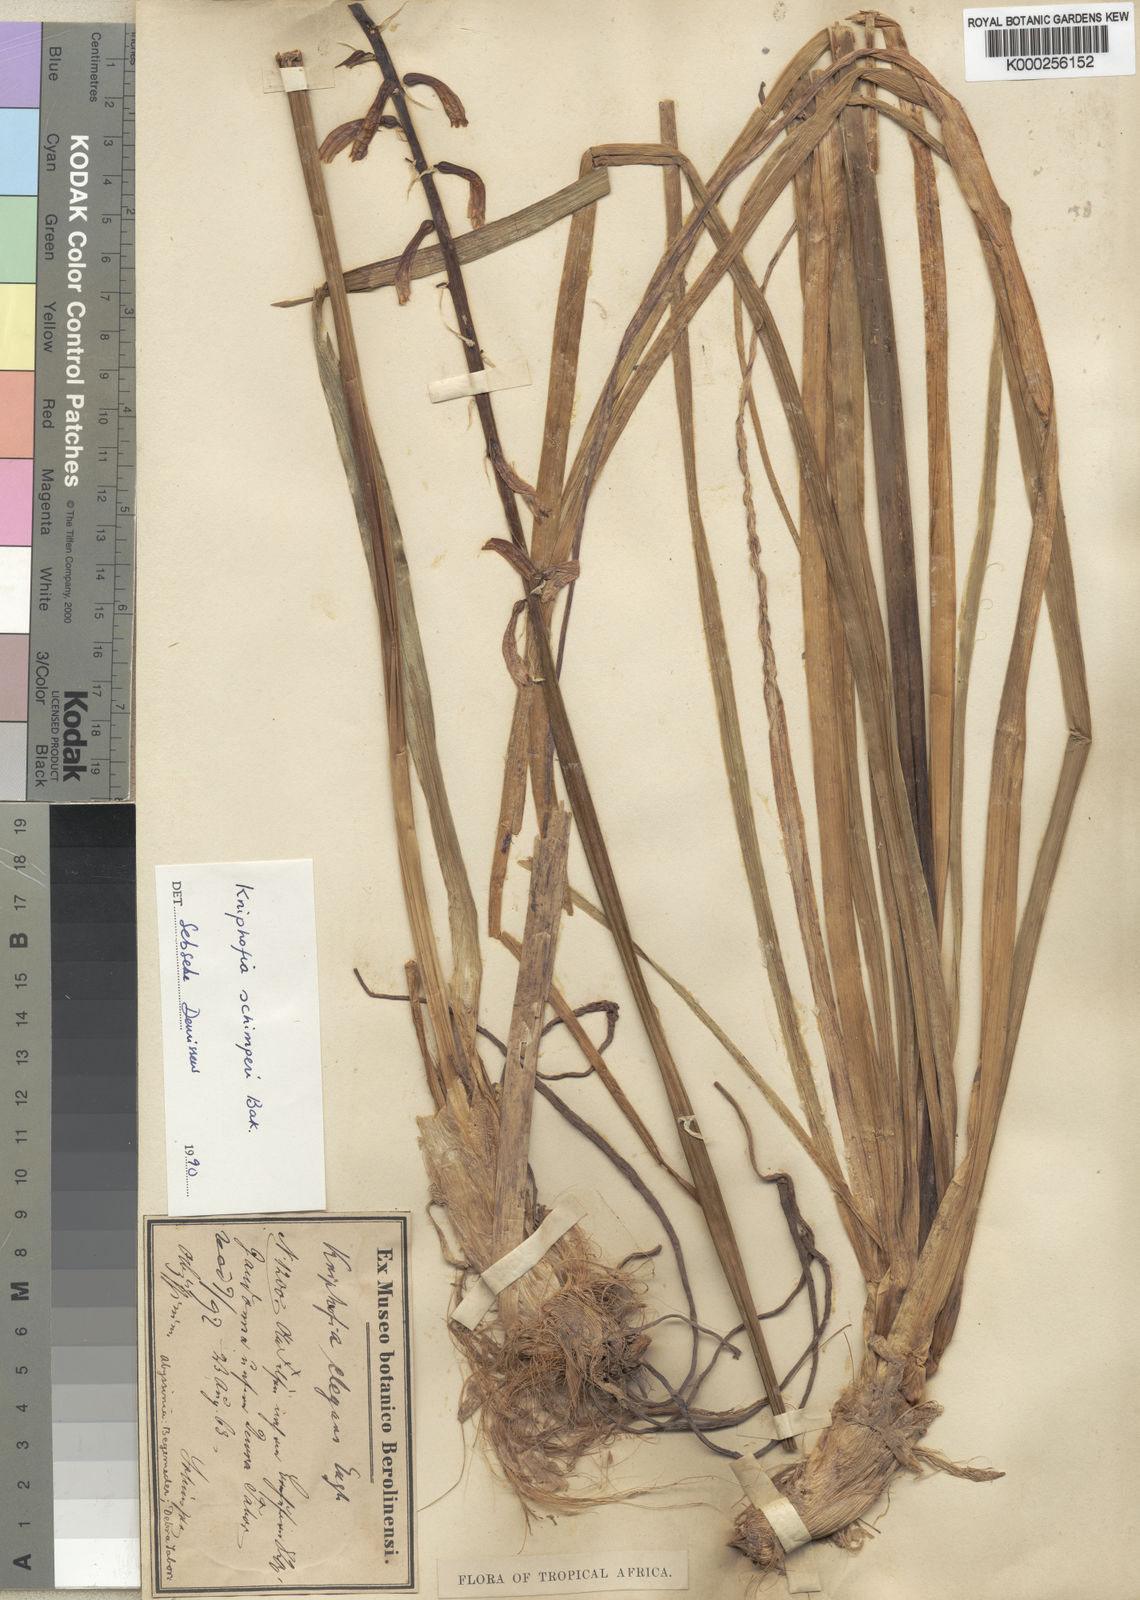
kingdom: Plantae
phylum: Tracheophyta
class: Liliopsida
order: Asparagales
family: Asphodelaceae
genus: Kniphofia
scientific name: Kniphofia schimperi
